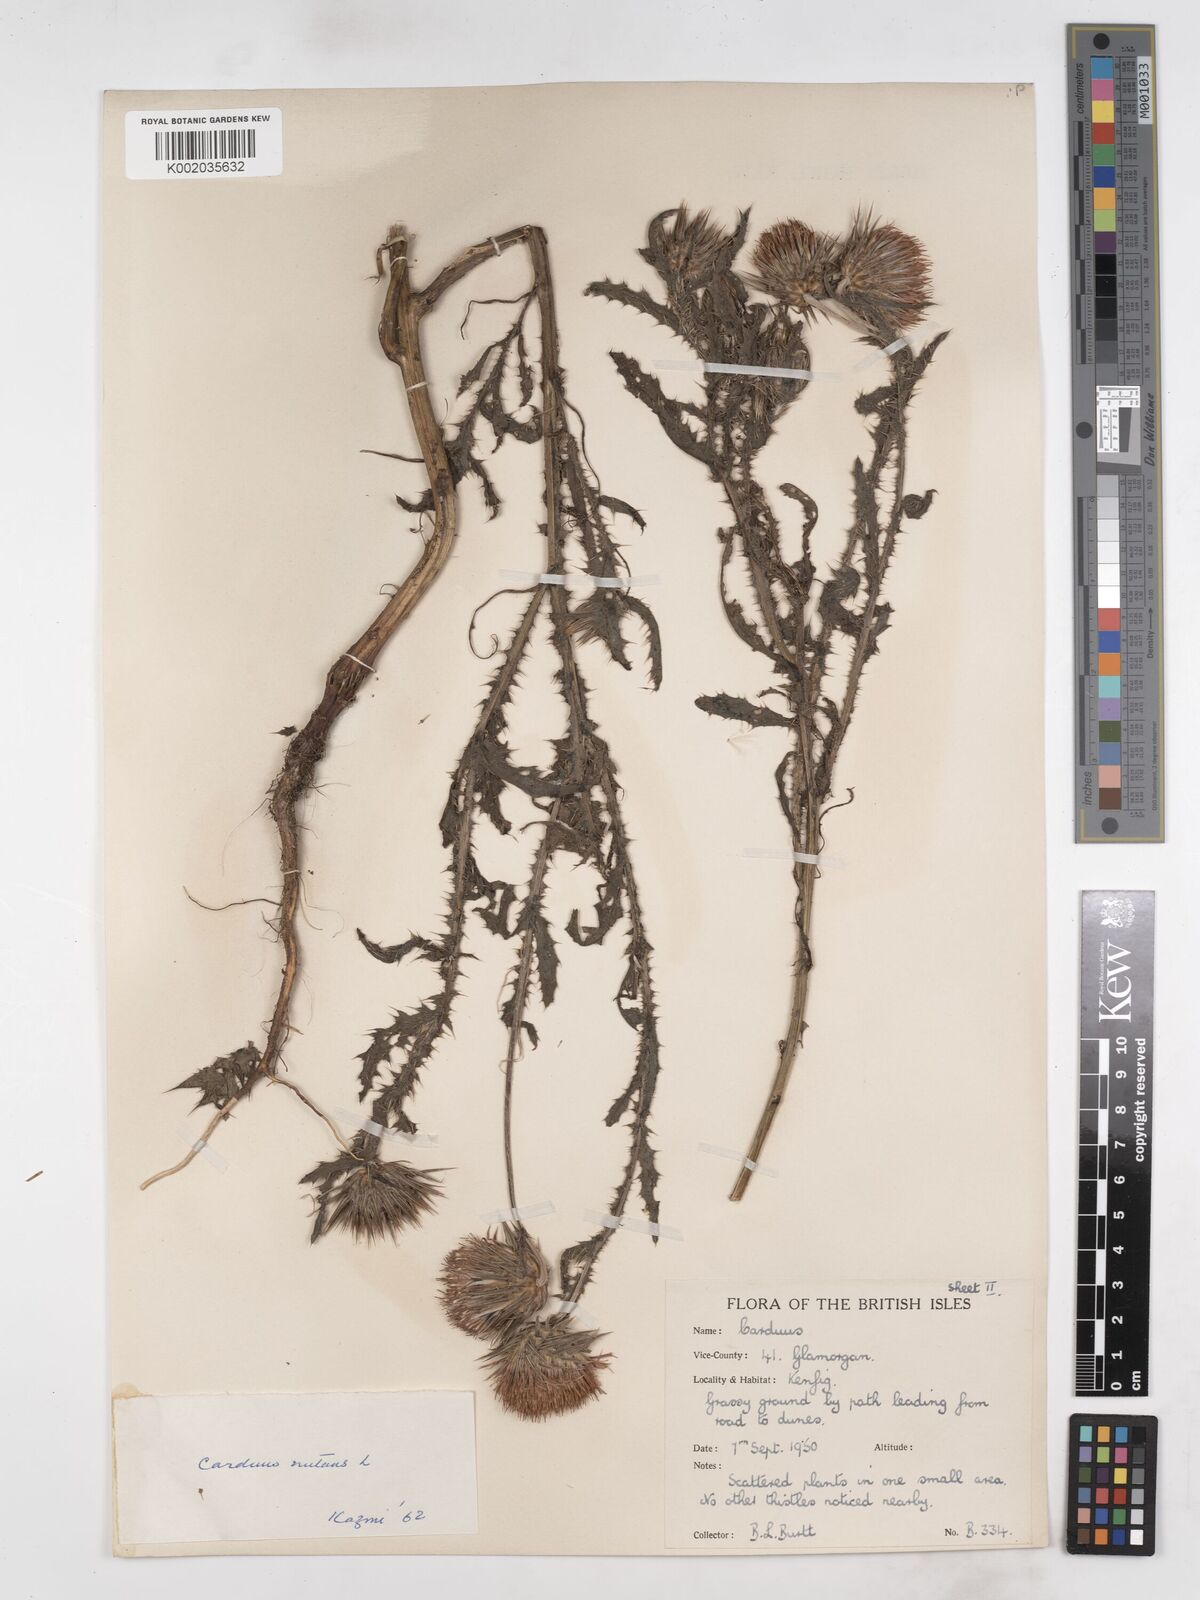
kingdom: Plantae
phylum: Tracheophyta
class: Magnoliopsida
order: Asterales
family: Asteraceae
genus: Carduus
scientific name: Carduus nutans
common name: Musk thistle
